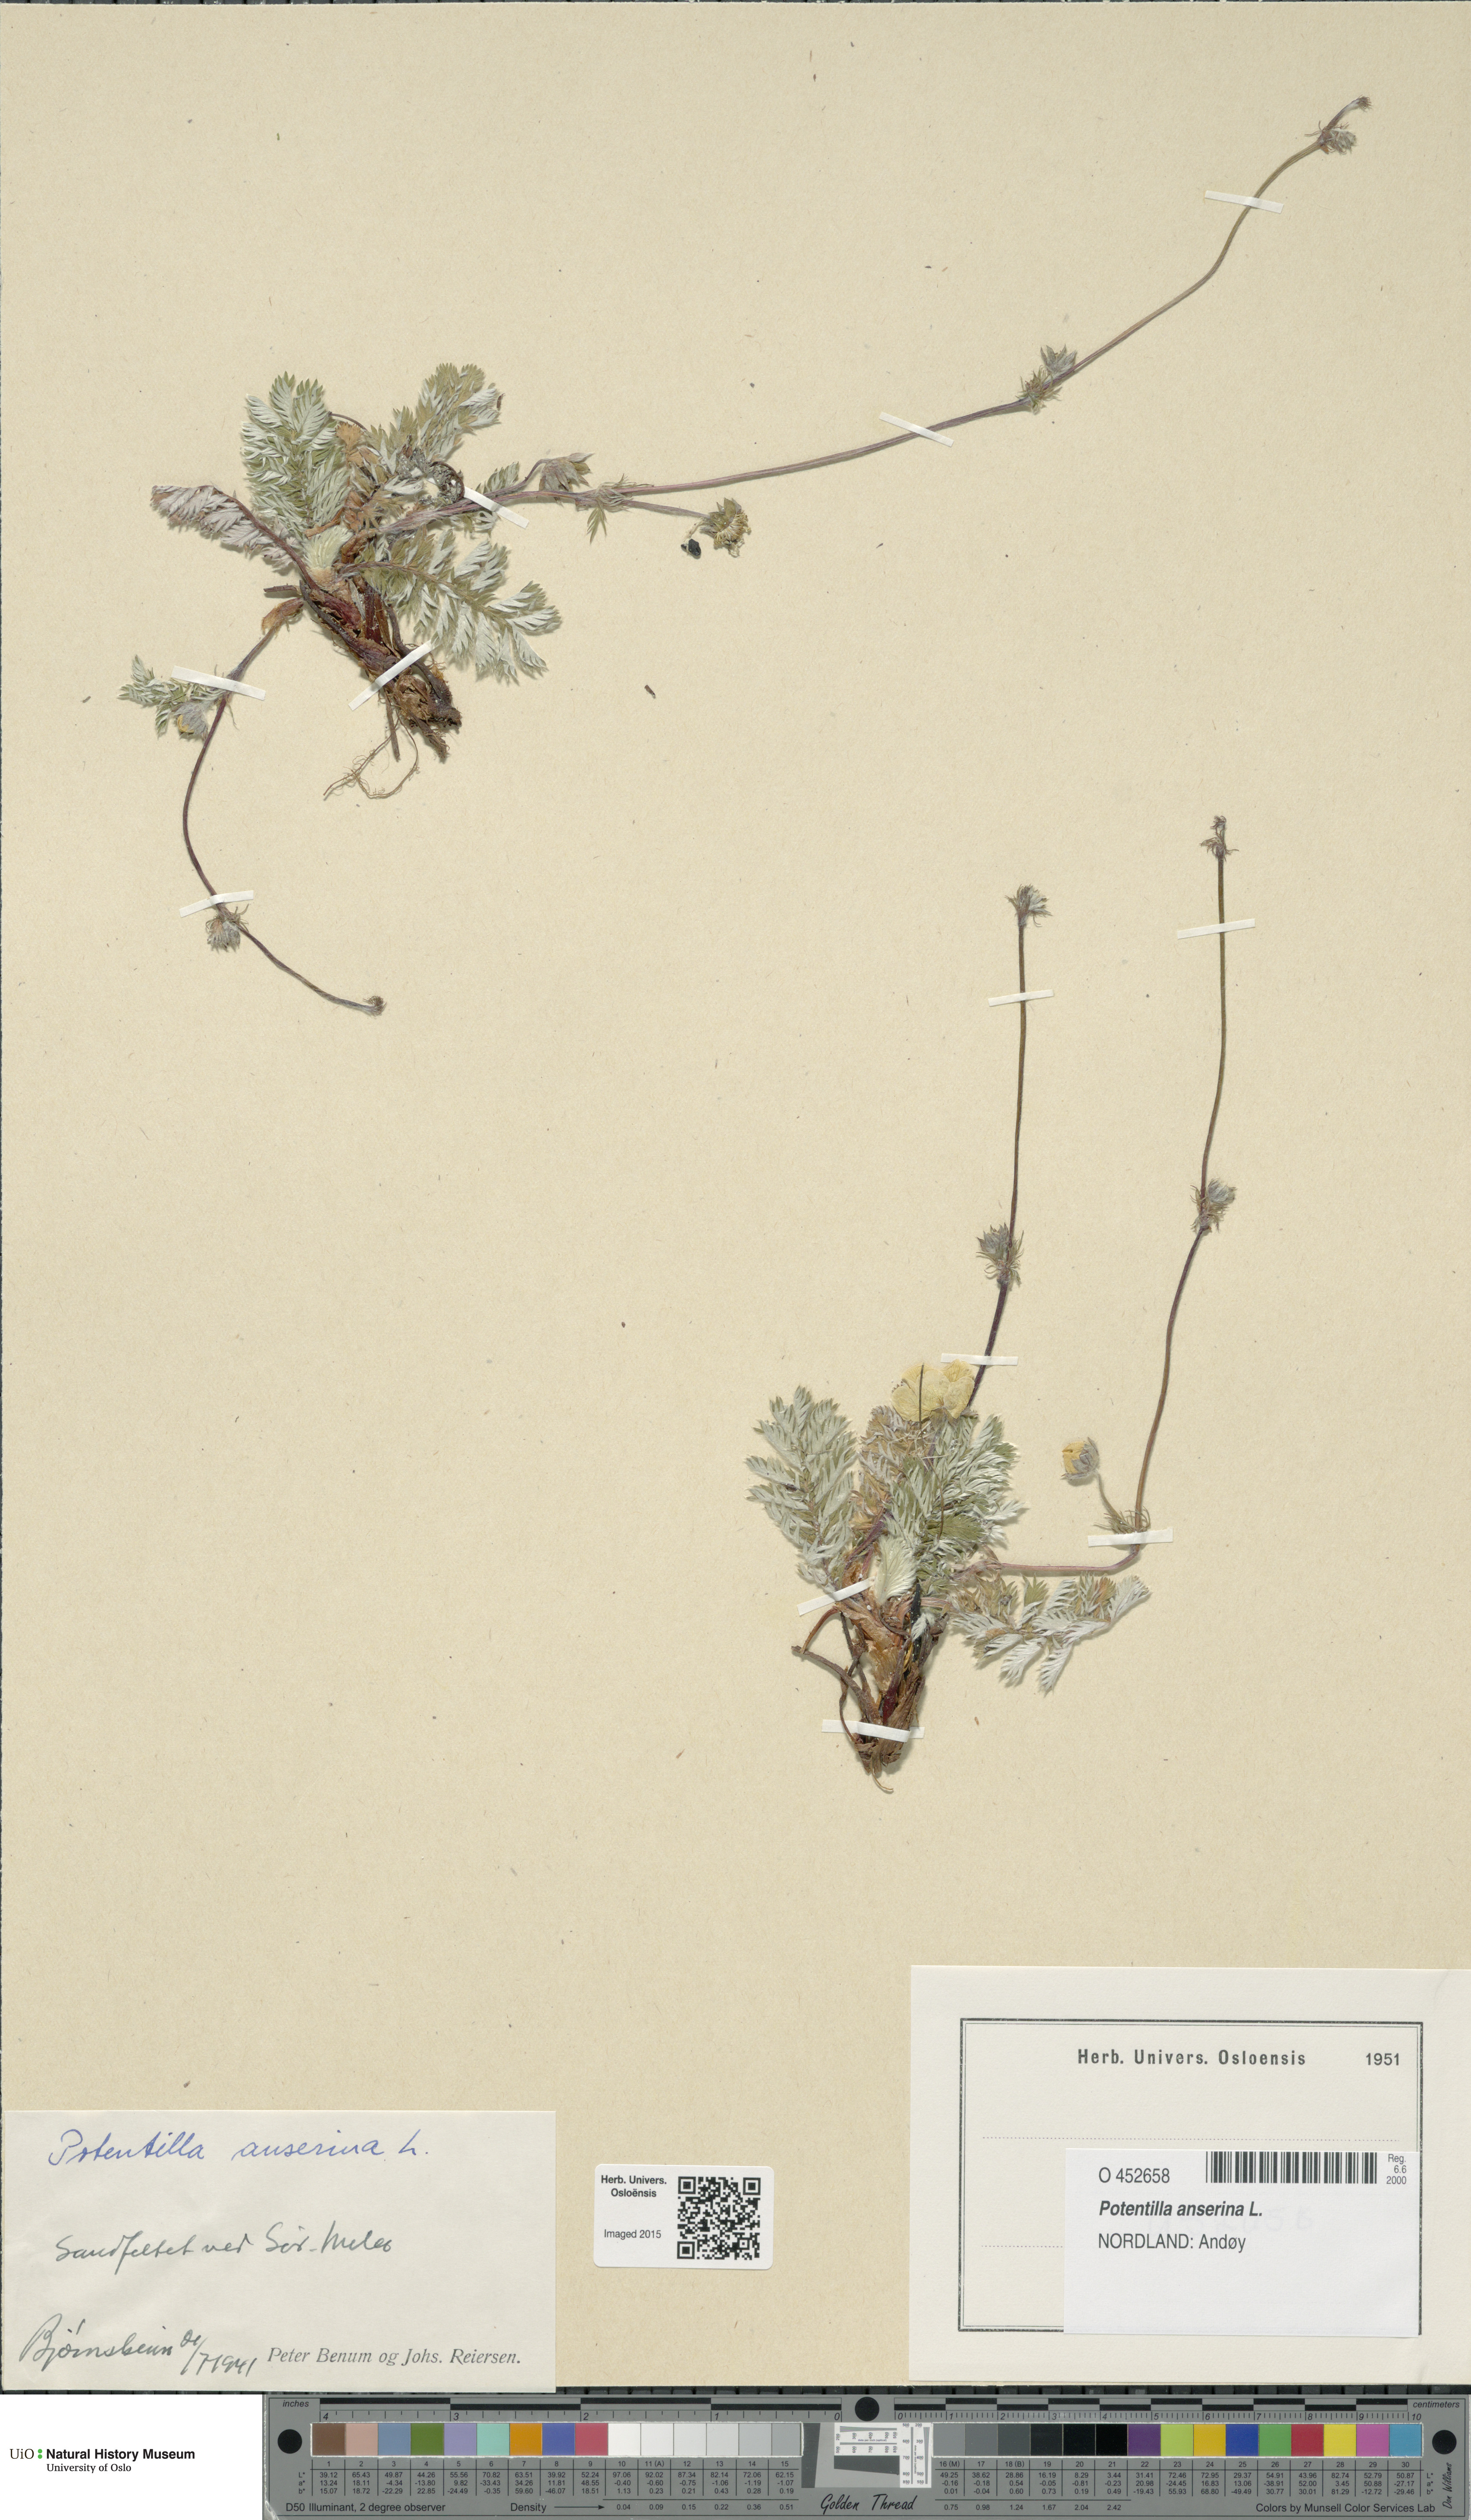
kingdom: Plantae
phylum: Tracheophyta
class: Magnoliopsida
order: Rosales
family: Rosaceae
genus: Argentina
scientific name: Argentina anserina
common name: Common silverweed
